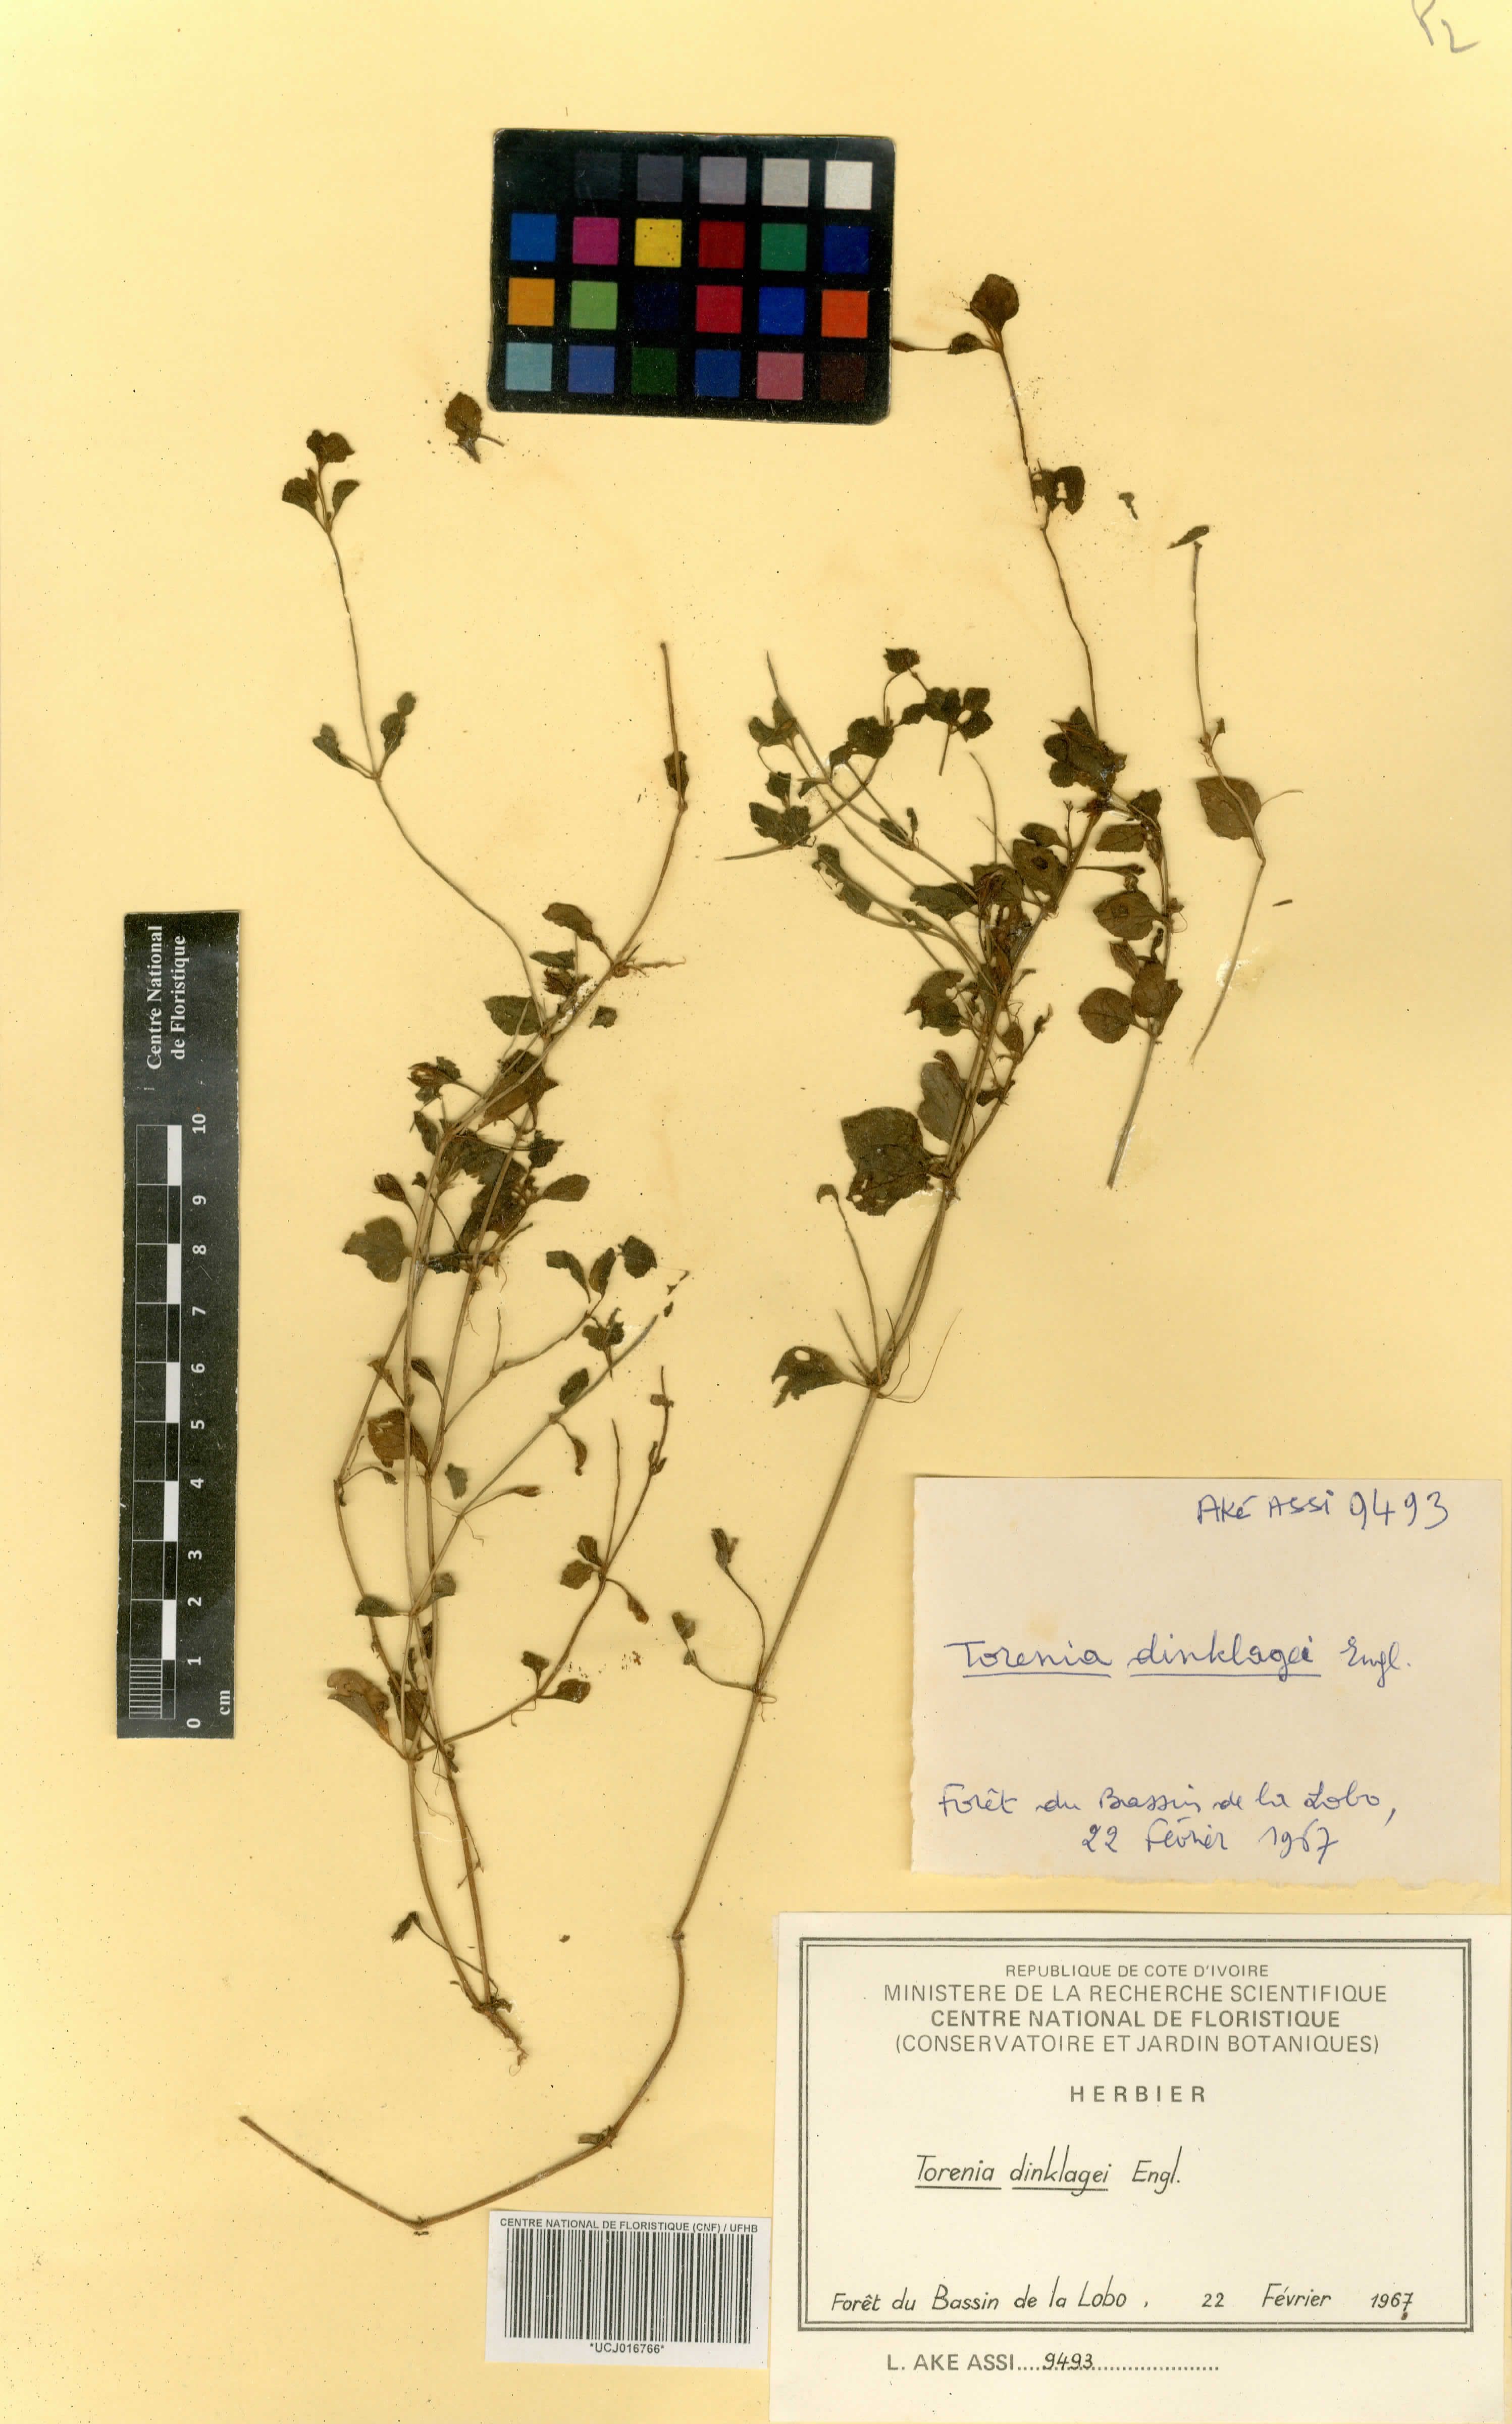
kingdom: Plantae
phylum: Tracheophyta
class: Magnoliopsida
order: Lamiales
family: Linderniaceae
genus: Torenia
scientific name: Torenia dinklagei
